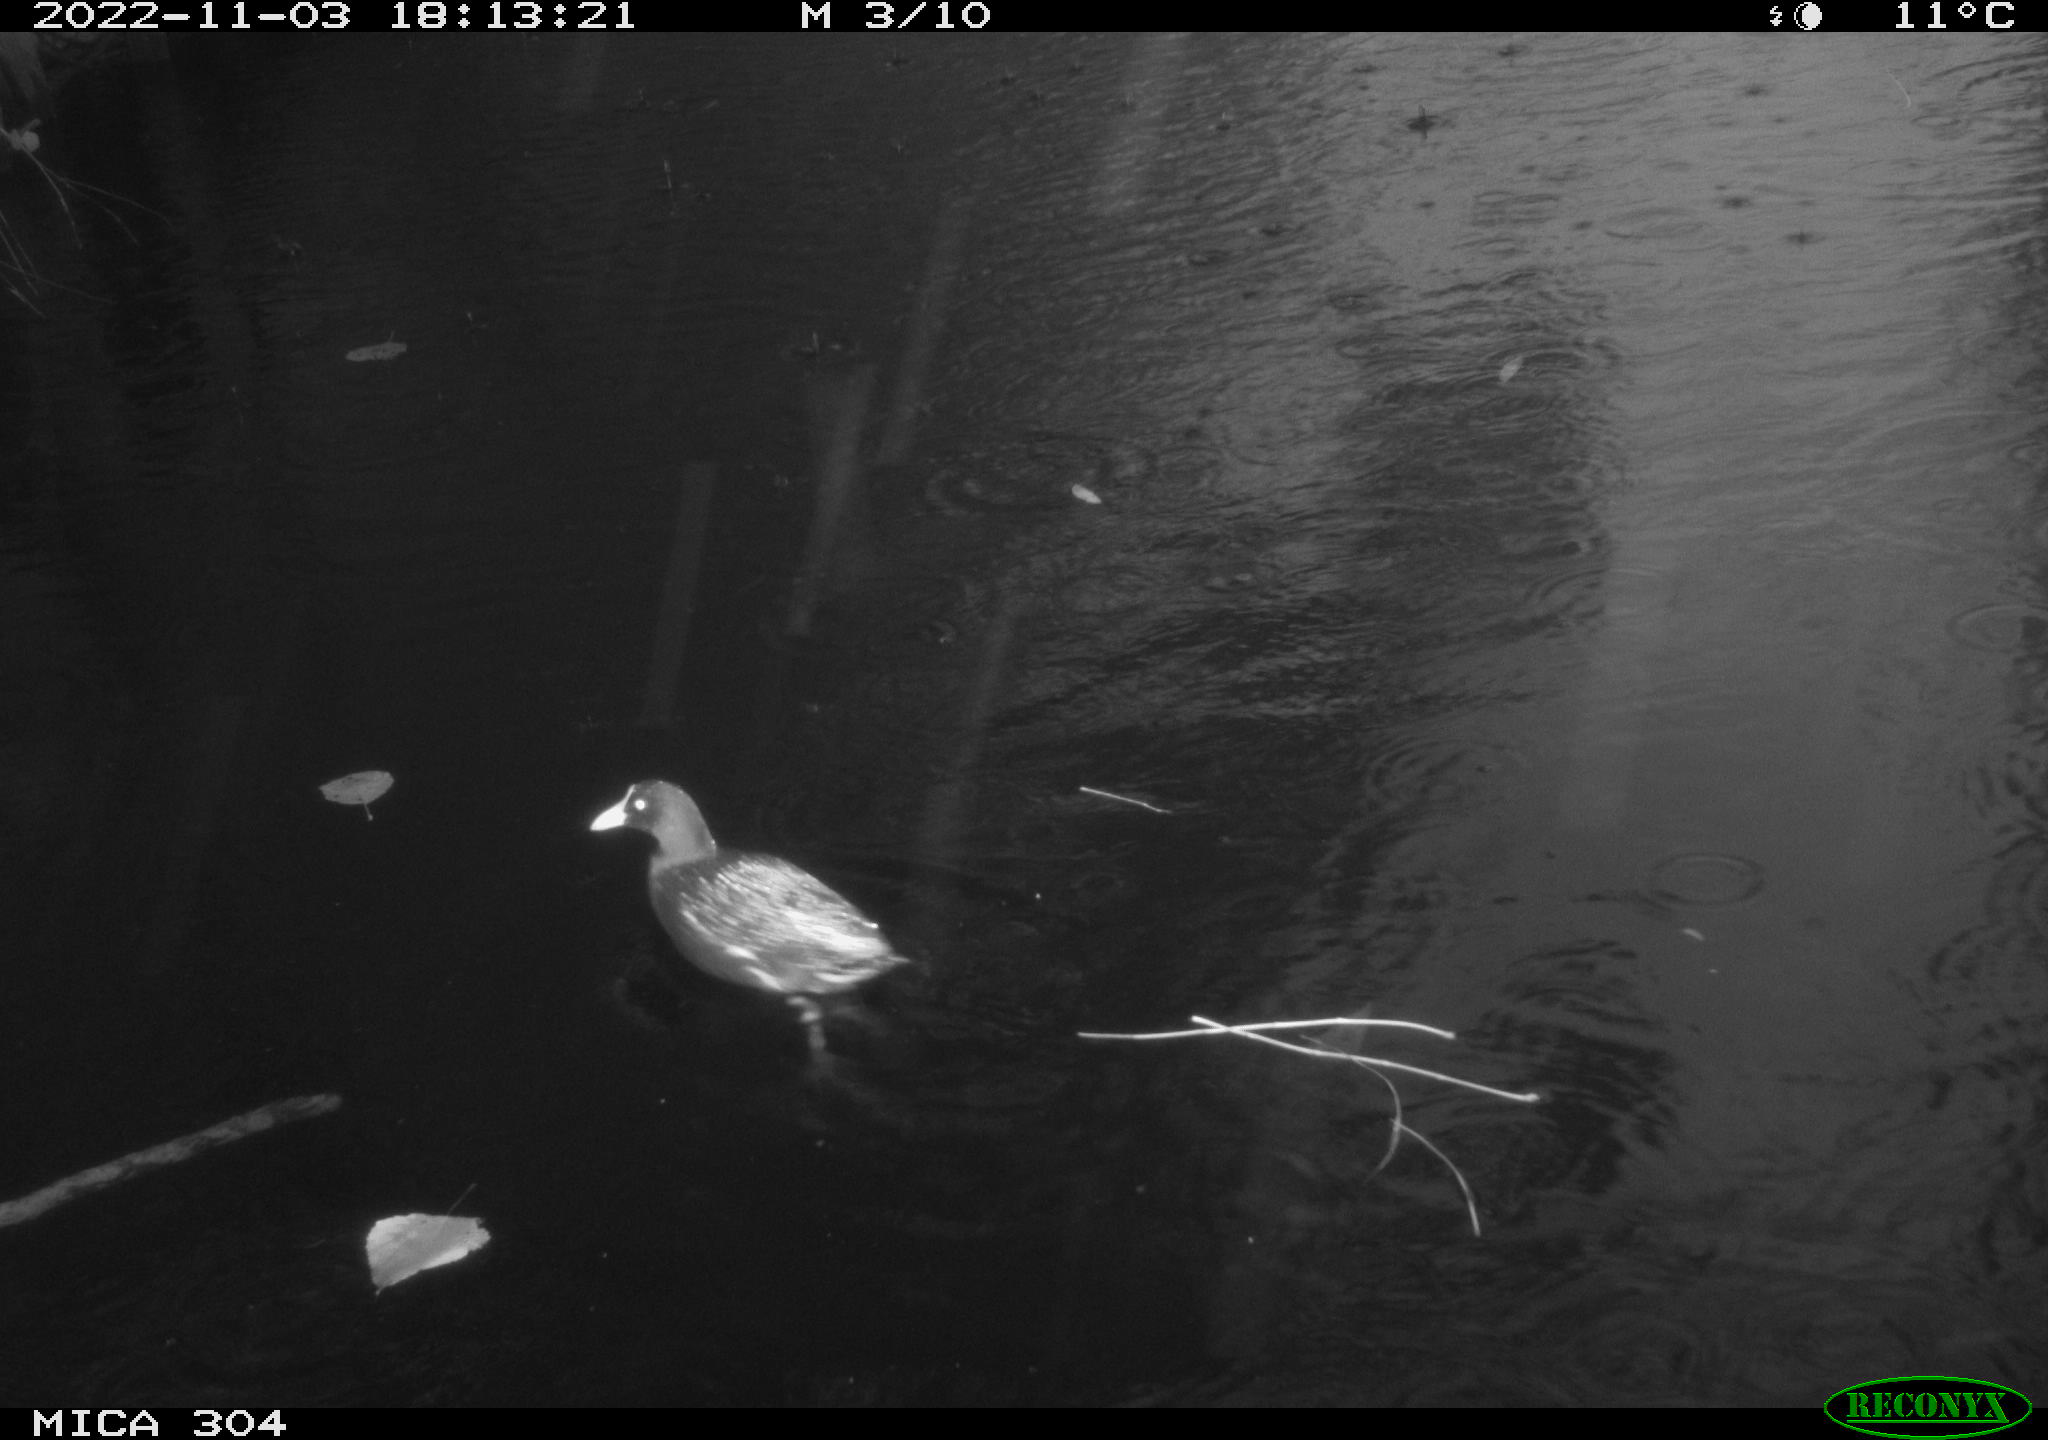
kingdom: Animalia
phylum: Chordata
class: Aves
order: Anseriformes
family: Anatidae
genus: Anas
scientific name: Anas
